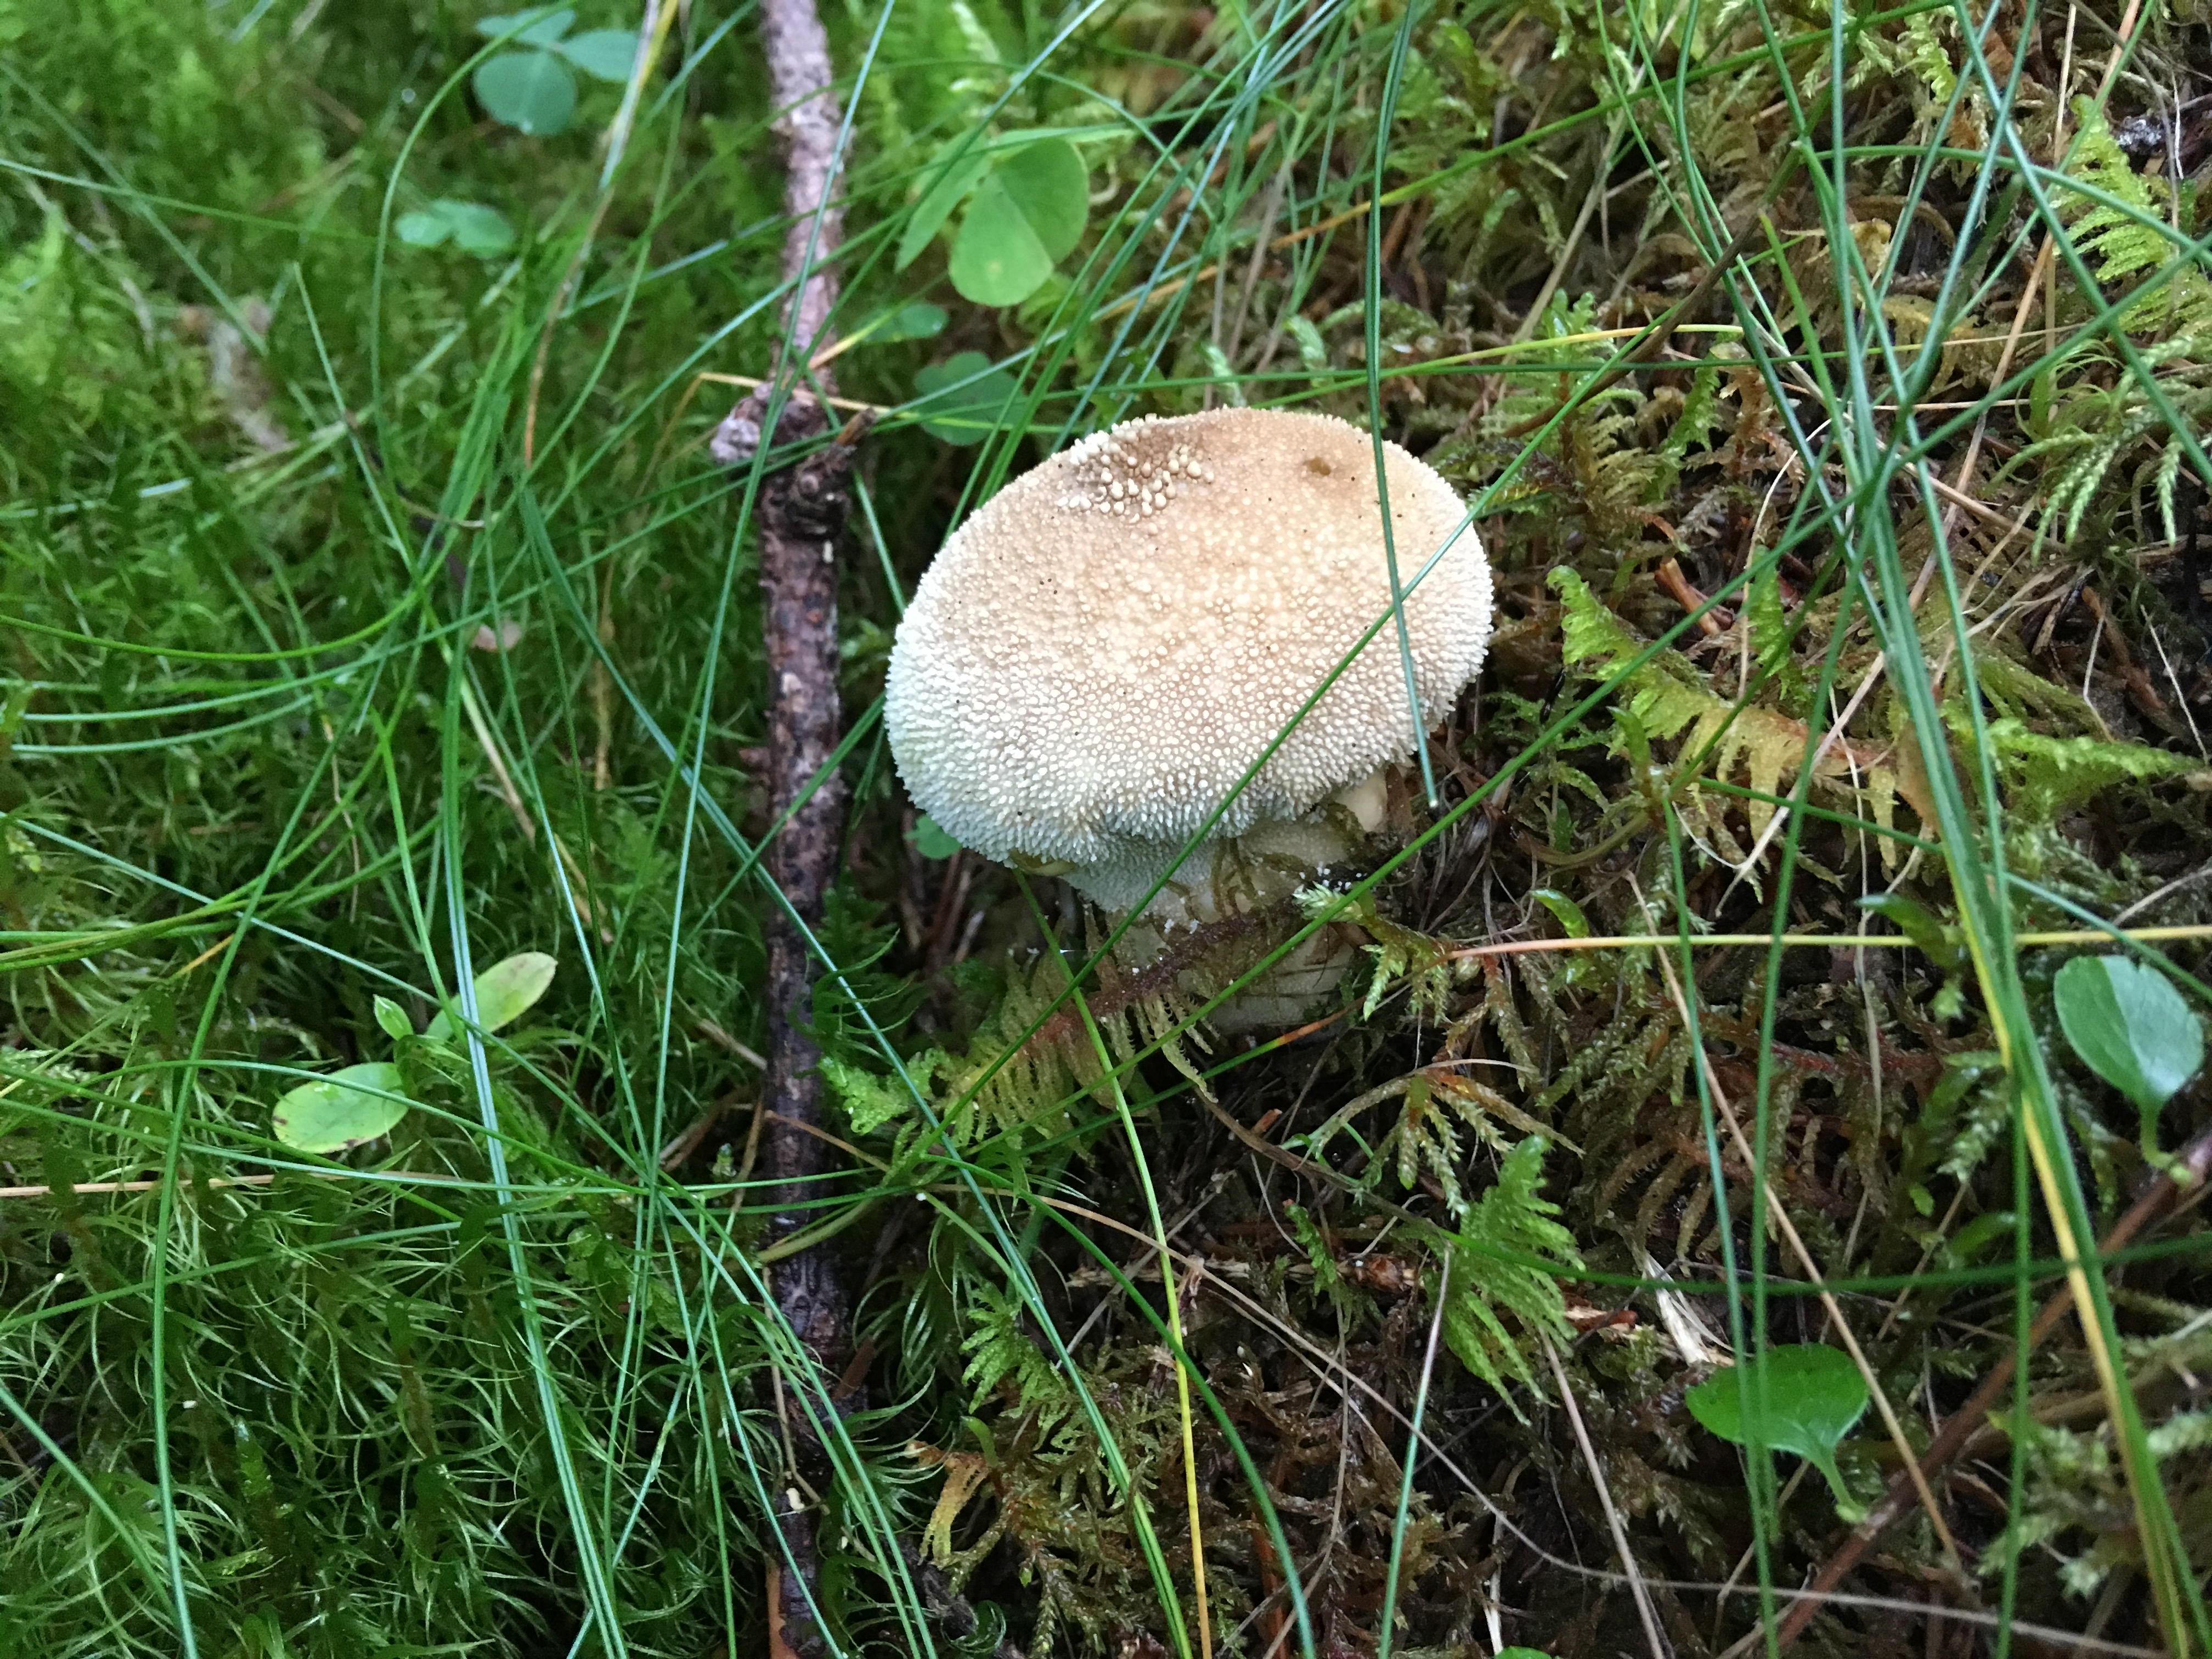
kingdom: Fungi
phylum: Basidiomycota
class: Agaricomycetes
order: Agaricales
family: Lycoperdaceae
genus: Lycoperdon
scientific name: Lycoperdon perlatum
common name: Common puffball
